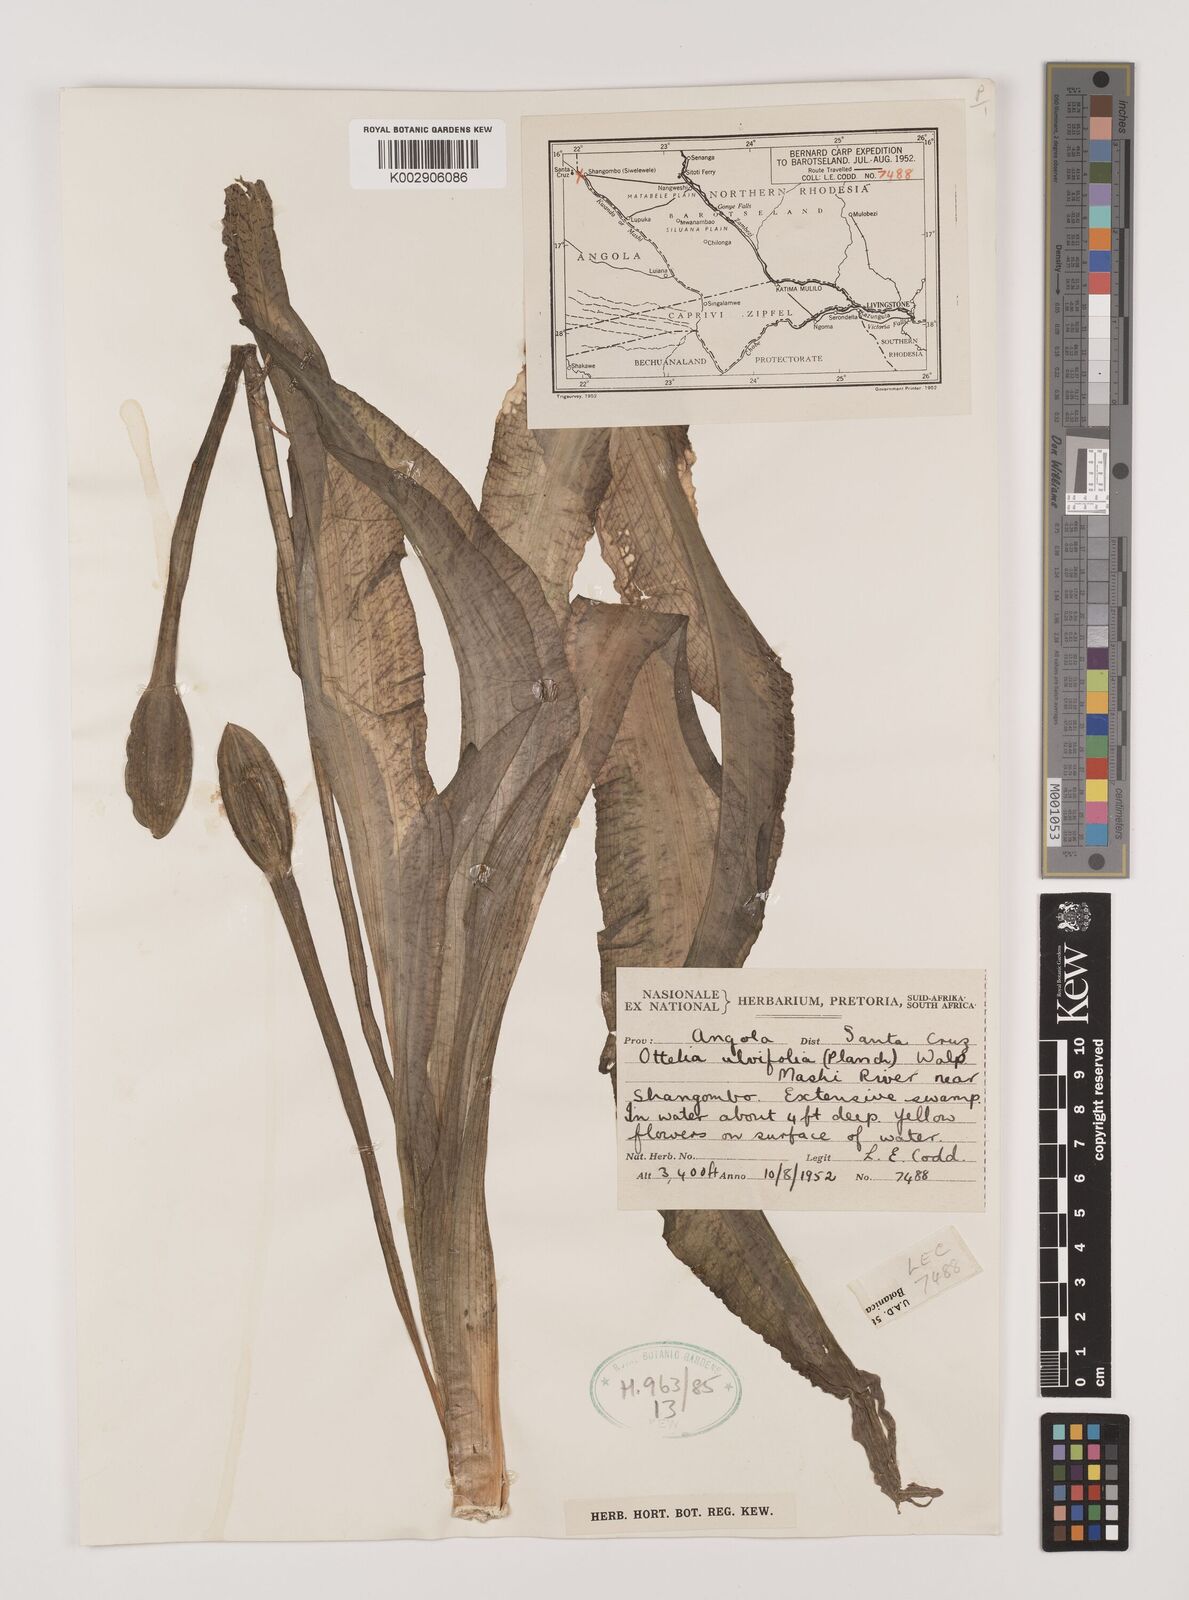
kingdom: Plantae
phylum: Tracheophyta
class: Liliopsida
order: Alismatales
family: Hydrocharitaceae
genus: Ottelia
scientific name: Ottelia ulvifolia
